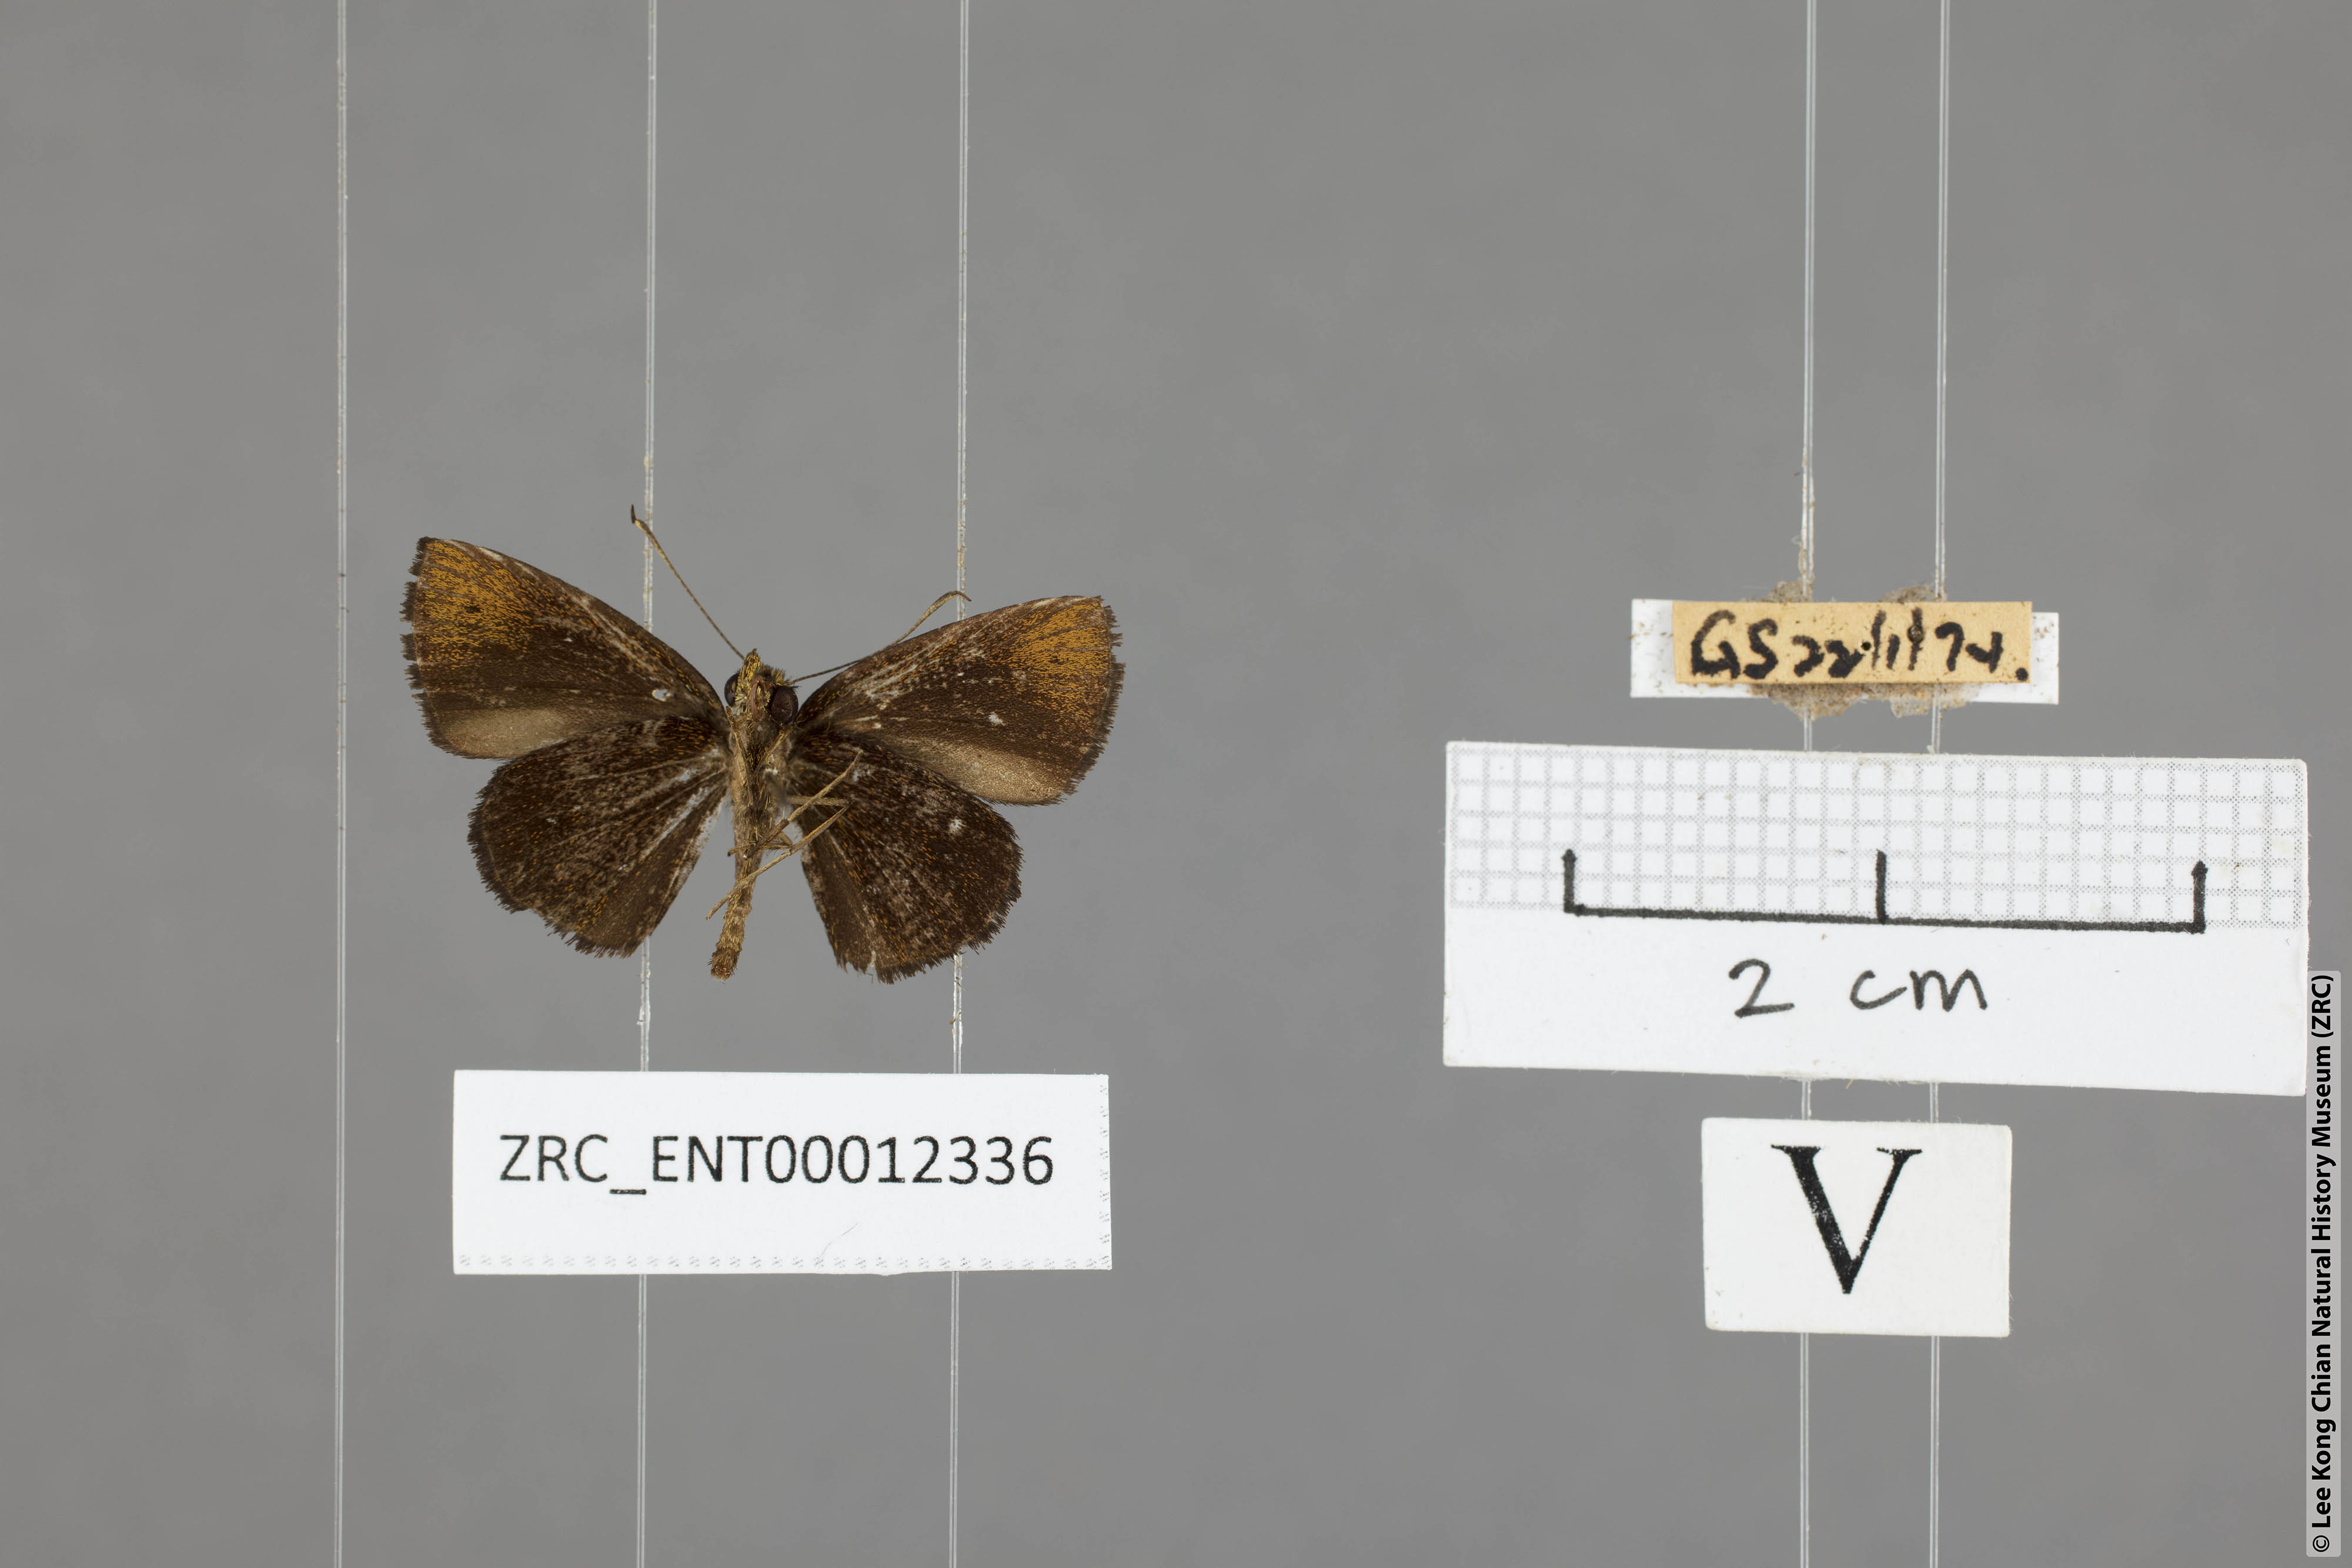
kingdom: Animalia
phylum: Arthropoda
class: Insecta
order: Lepidoptera
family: Hesperiidae
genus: Arnetta
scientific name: Arnetta verones
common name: Sumatran bob
